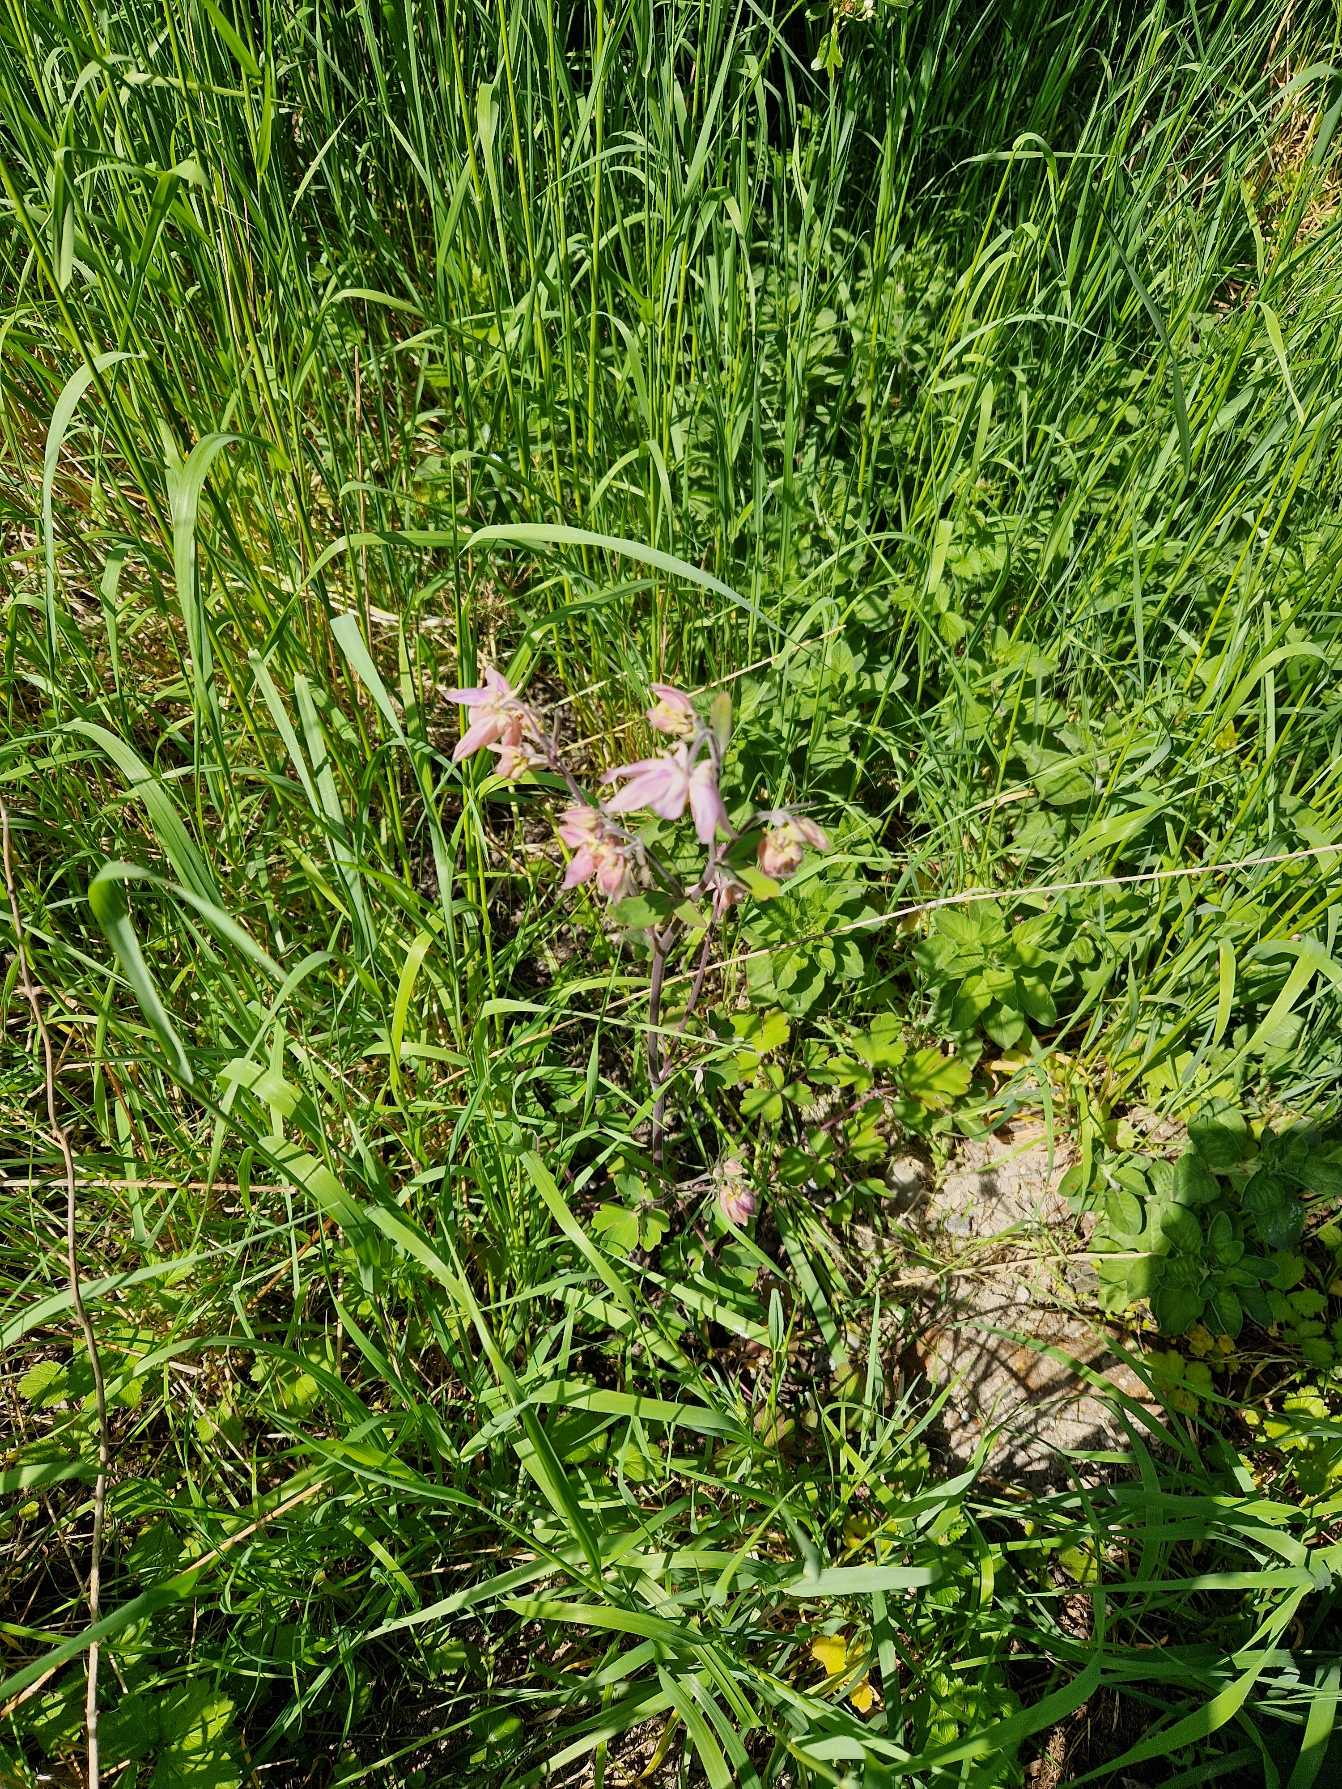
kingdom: Plantae
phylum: Tracheophyta
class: Magnoliopsida
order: Ranunculales
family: Ranunculaceae
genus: Aquilegia
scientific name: Aquilegia vulgaris
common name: Akeleje
